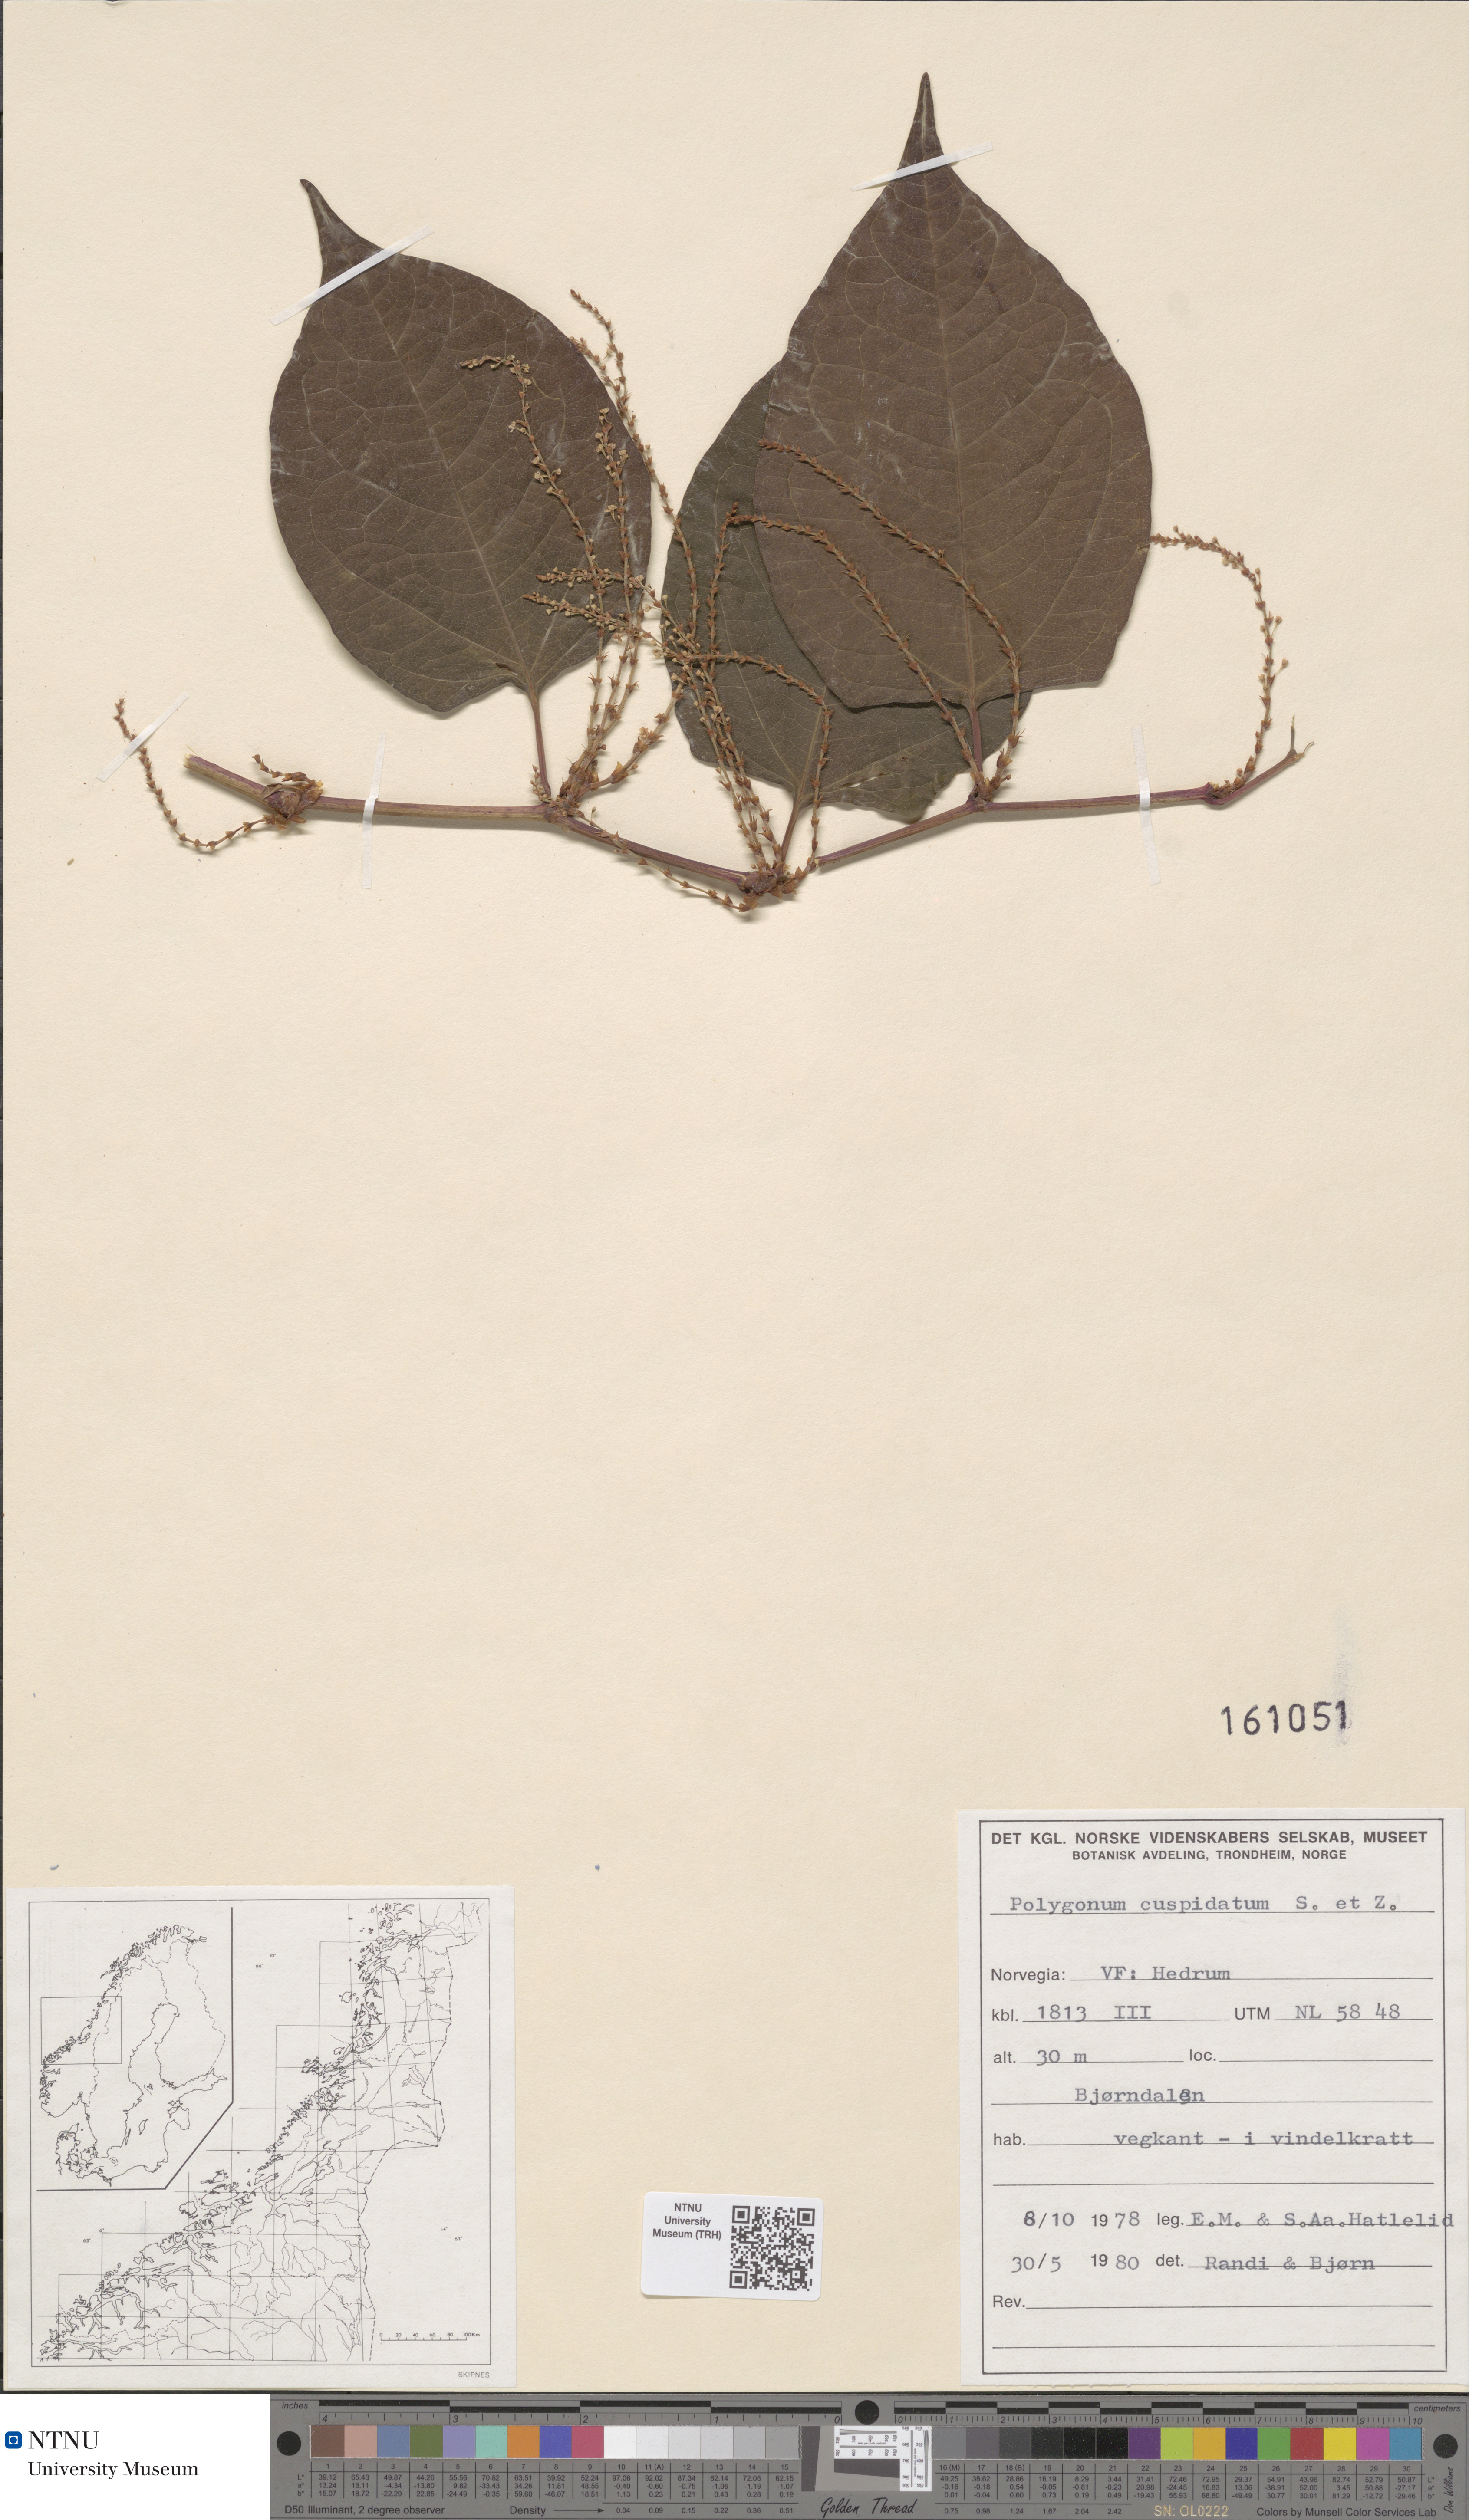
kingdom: Plantae
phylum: Tracheophyta
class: Magnoliopsida
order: Caryophyllales
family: Polygonaceae
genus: Reynoutria
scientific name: Reynoutria japonica
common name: Japanese knotweed
